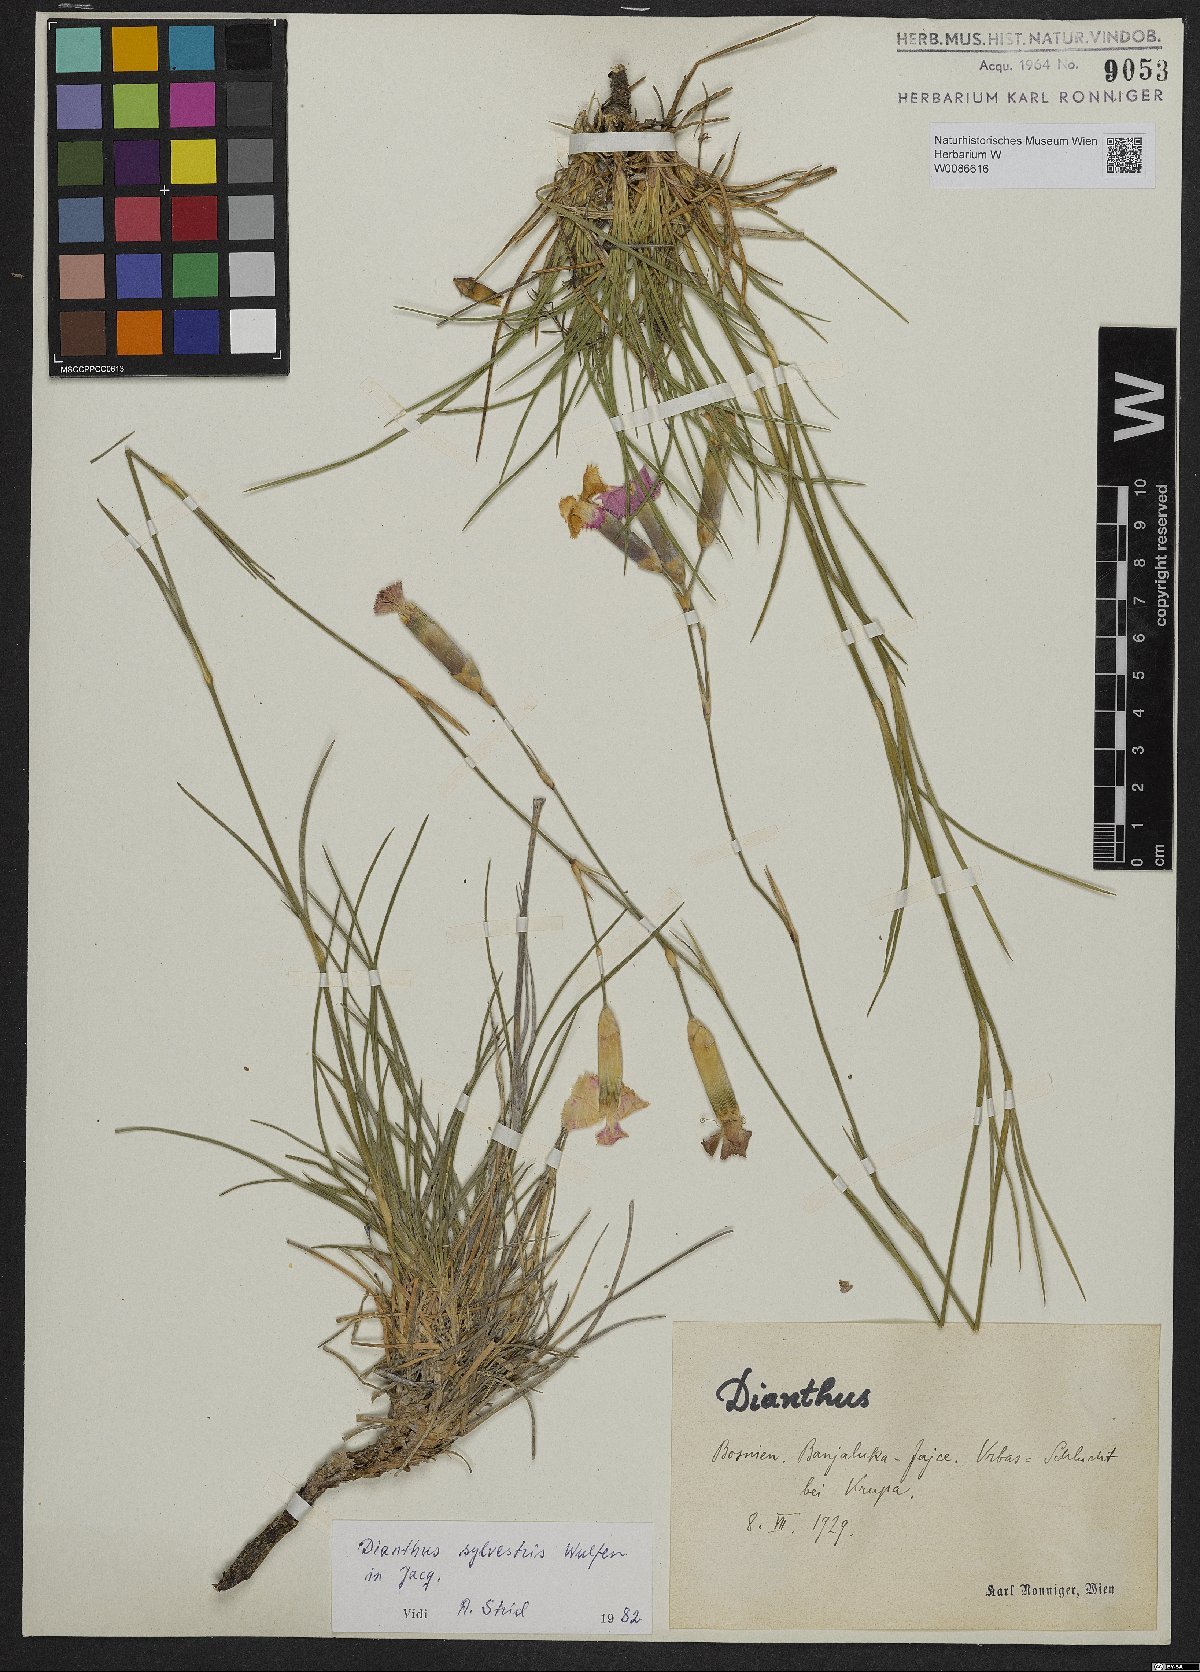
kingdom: Plantae
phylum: Tracheophyta
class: Magnoliopsida
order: Caryophyllales
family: Caryophyllaceae
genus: Dianthus
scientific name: Dianthus sylvestris
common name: Wood pink
